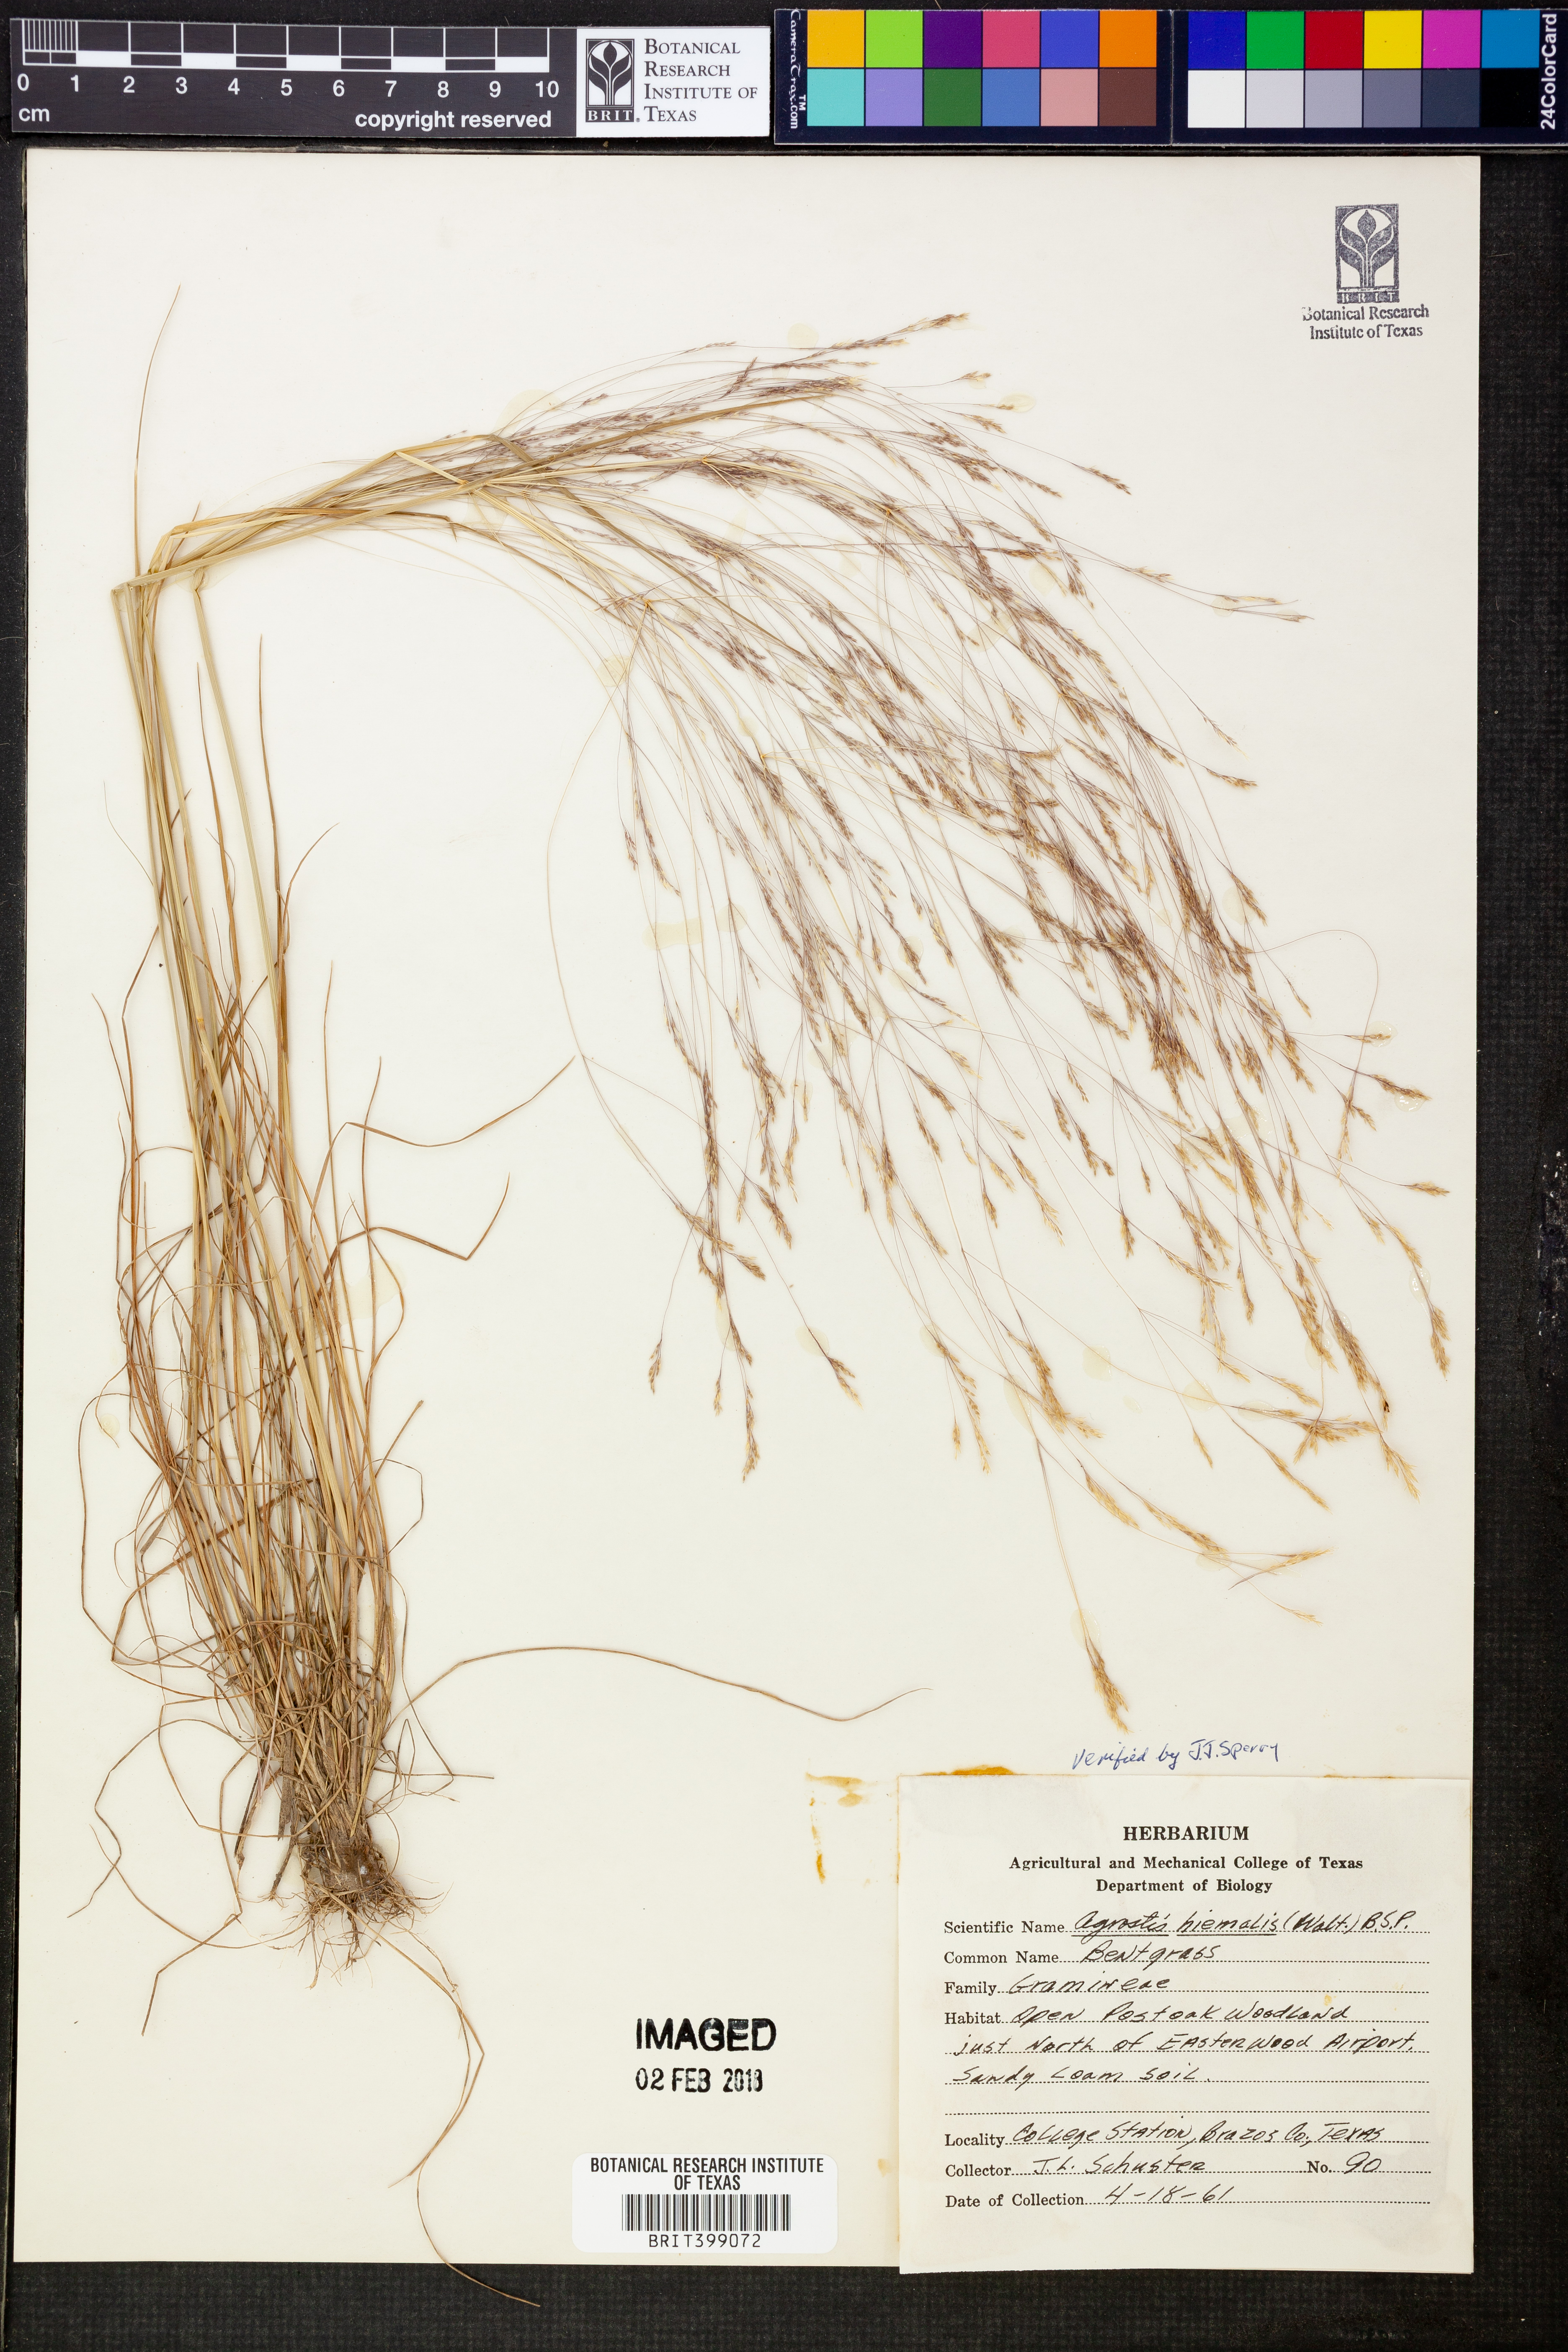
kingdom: Plantae
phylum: Tracheophyta
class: Liliopsida
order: Poales
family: Poaceae
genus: Agrostis
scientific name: Agrostis hyemalis
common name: Small bent
